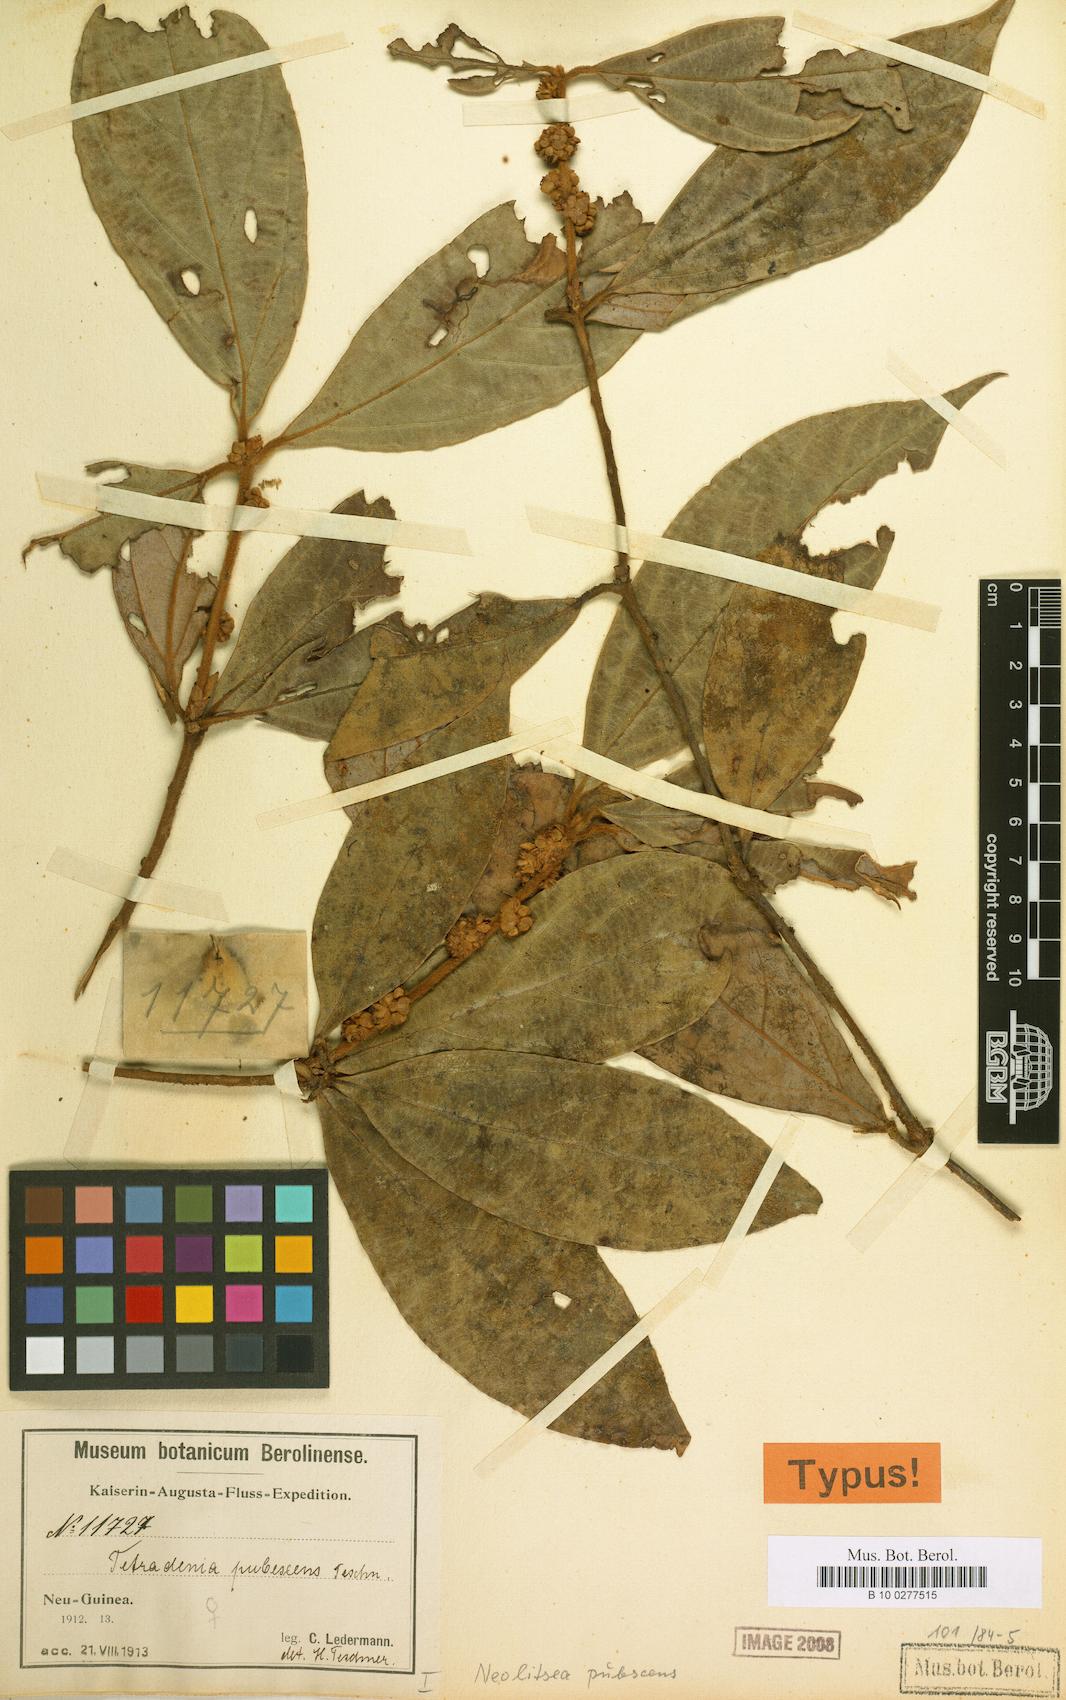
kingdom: Plantae
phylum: Tracheophyta
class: Magnoliopsida
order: Laurales
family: Lauraceae
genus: Neolitsea
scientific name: Neolitsea pubescens
